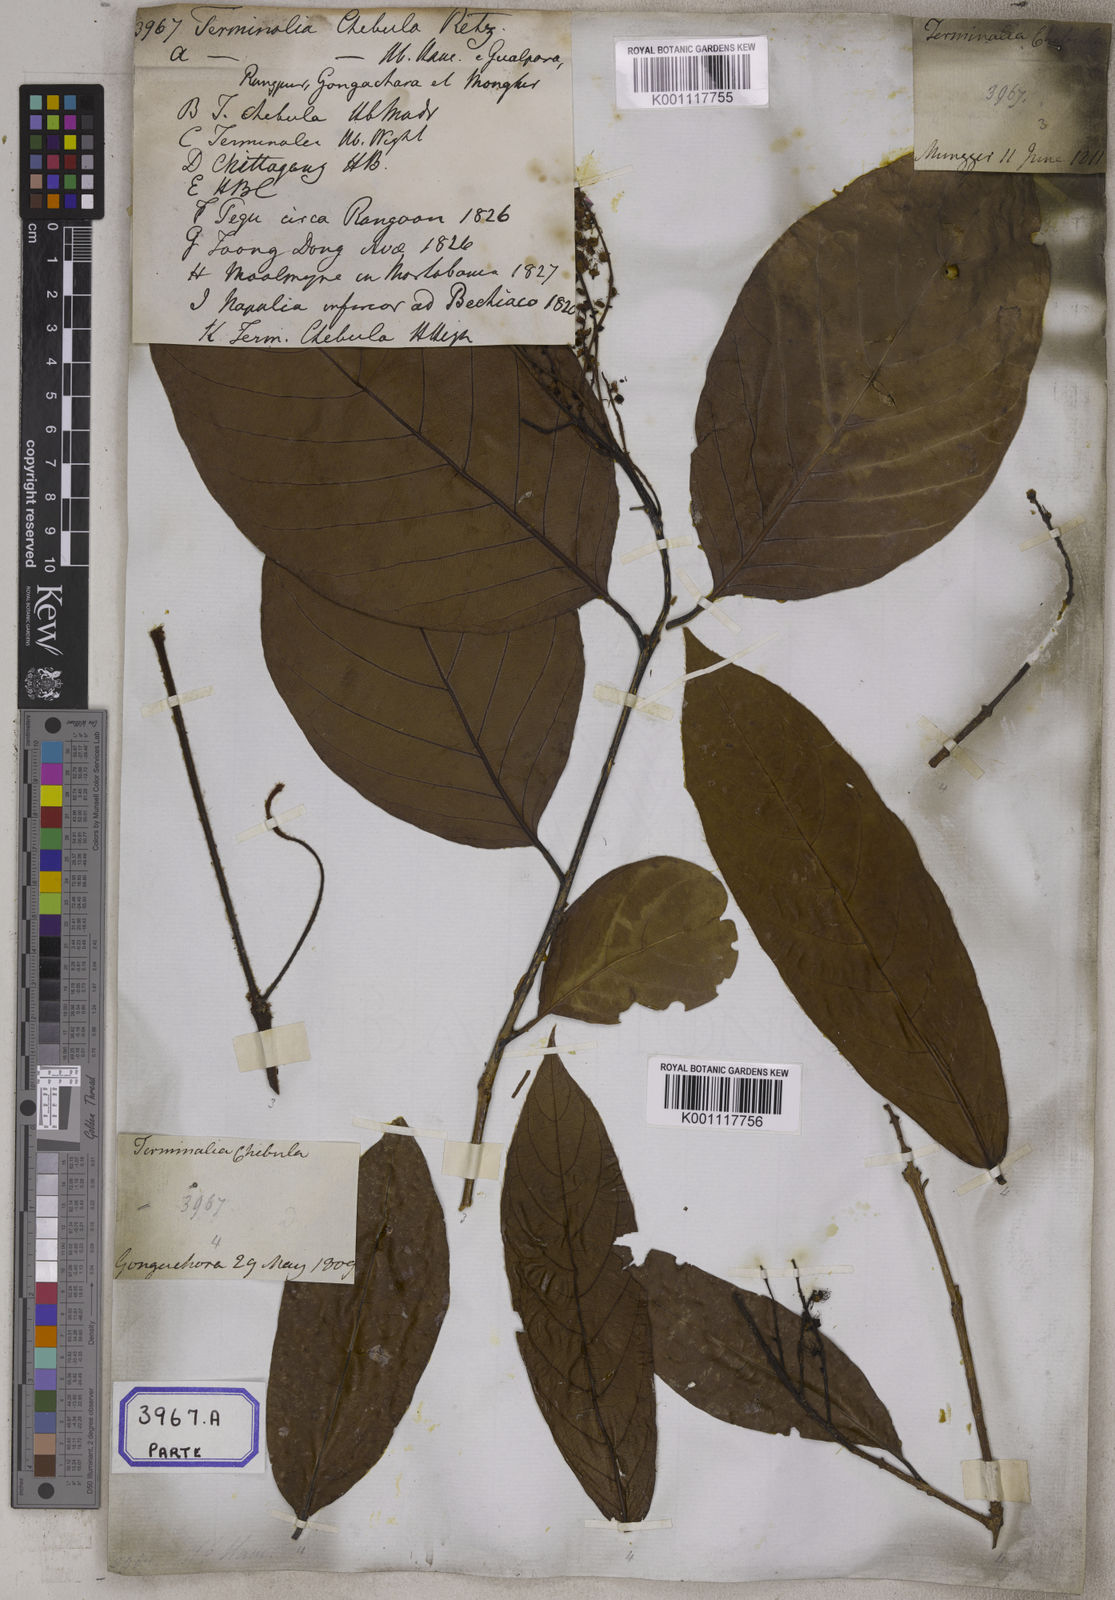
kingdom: Plantae
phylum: Tracheophyta
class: Magnoliopsida
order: Myrtales
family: Combretaceae
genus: Terminalia
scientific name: Terminalia chebula
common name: Myrobalan
